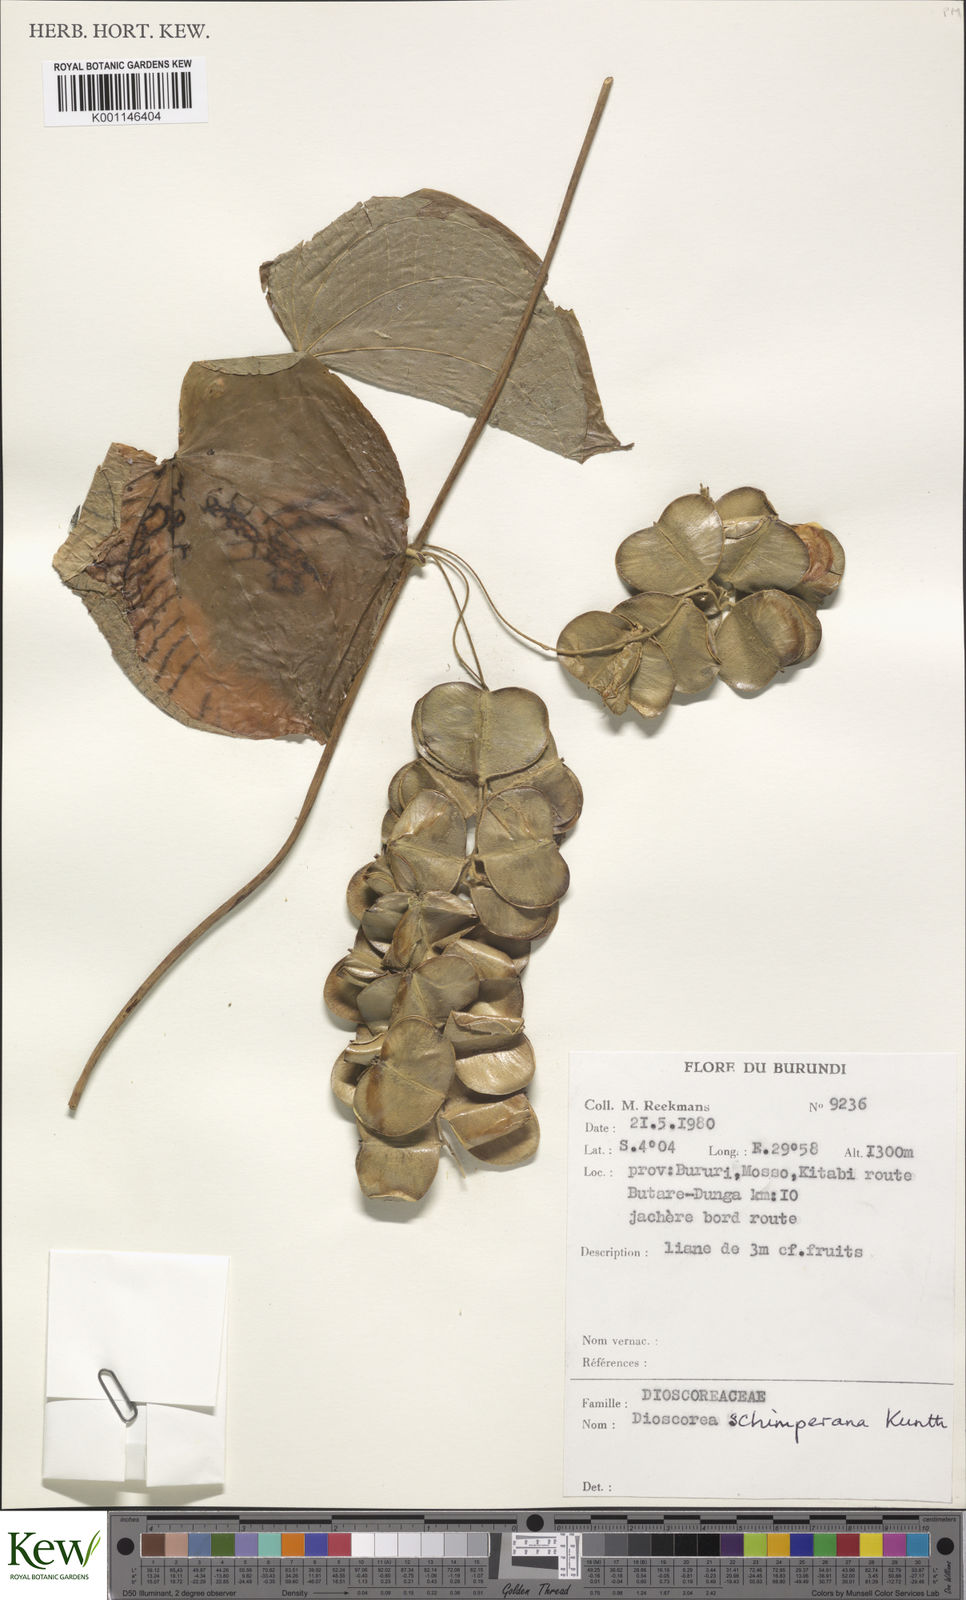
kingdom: Plantae
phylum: Tracheophyta
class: Liliopsida
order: Dioscoreales
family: Dioscoreaceae
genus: Dioscorea
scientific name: Dioscorea schimperiana
